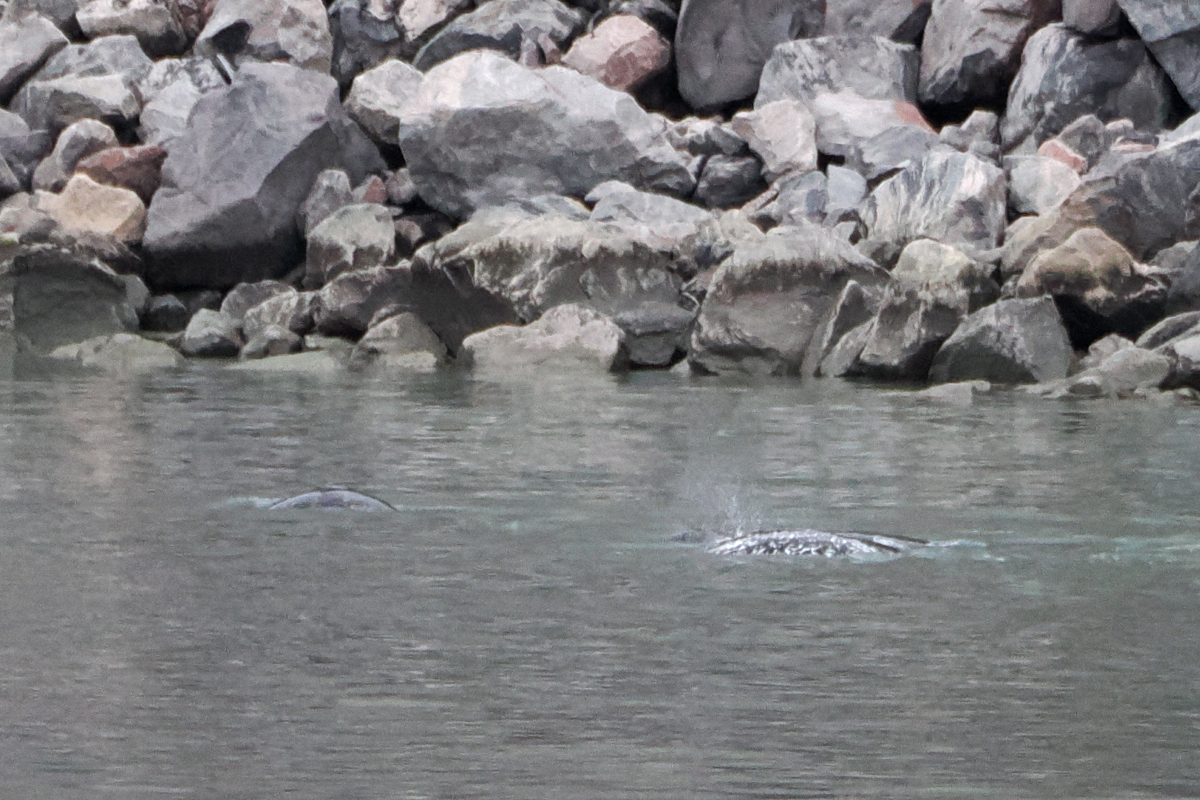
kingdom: Animalia
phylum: Chordata
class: Mammalia
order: Cetacea
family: Monodontidae
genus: Monodon
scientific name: Monodon monoceros
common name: Narwhal
